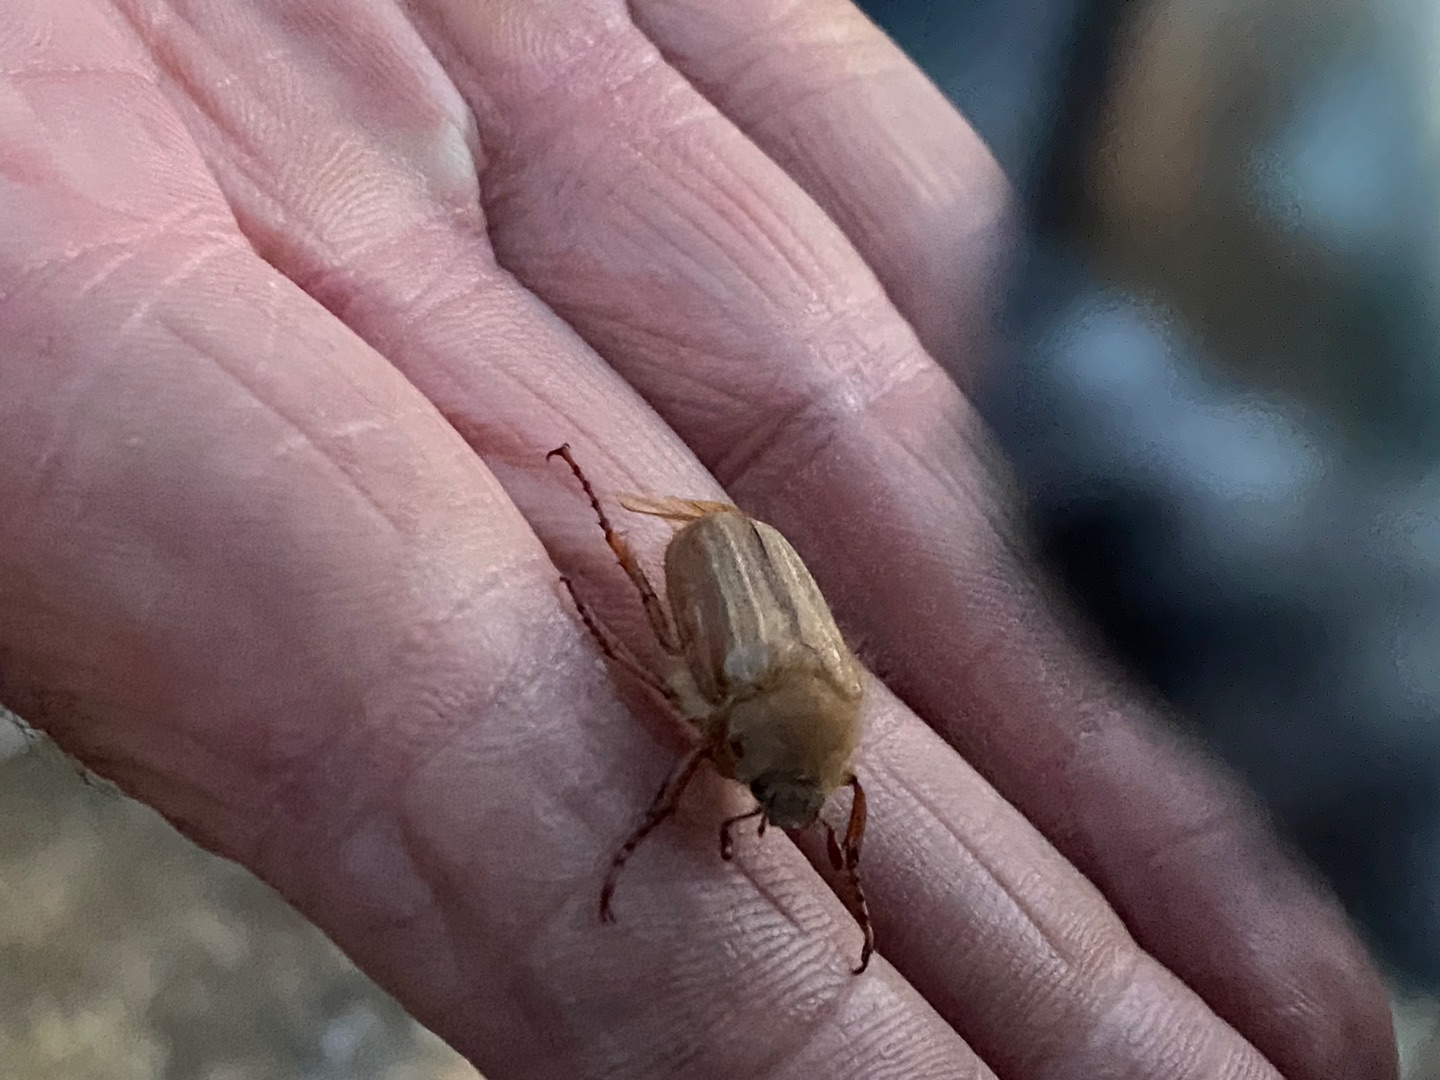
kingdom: Animalia
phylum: Arthropoda
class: Insecta
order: Coleoptera
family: Scarabaeidae
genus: Amphimallon
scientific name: Amphimallon solstitiale
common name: Sankthansoldenborre
